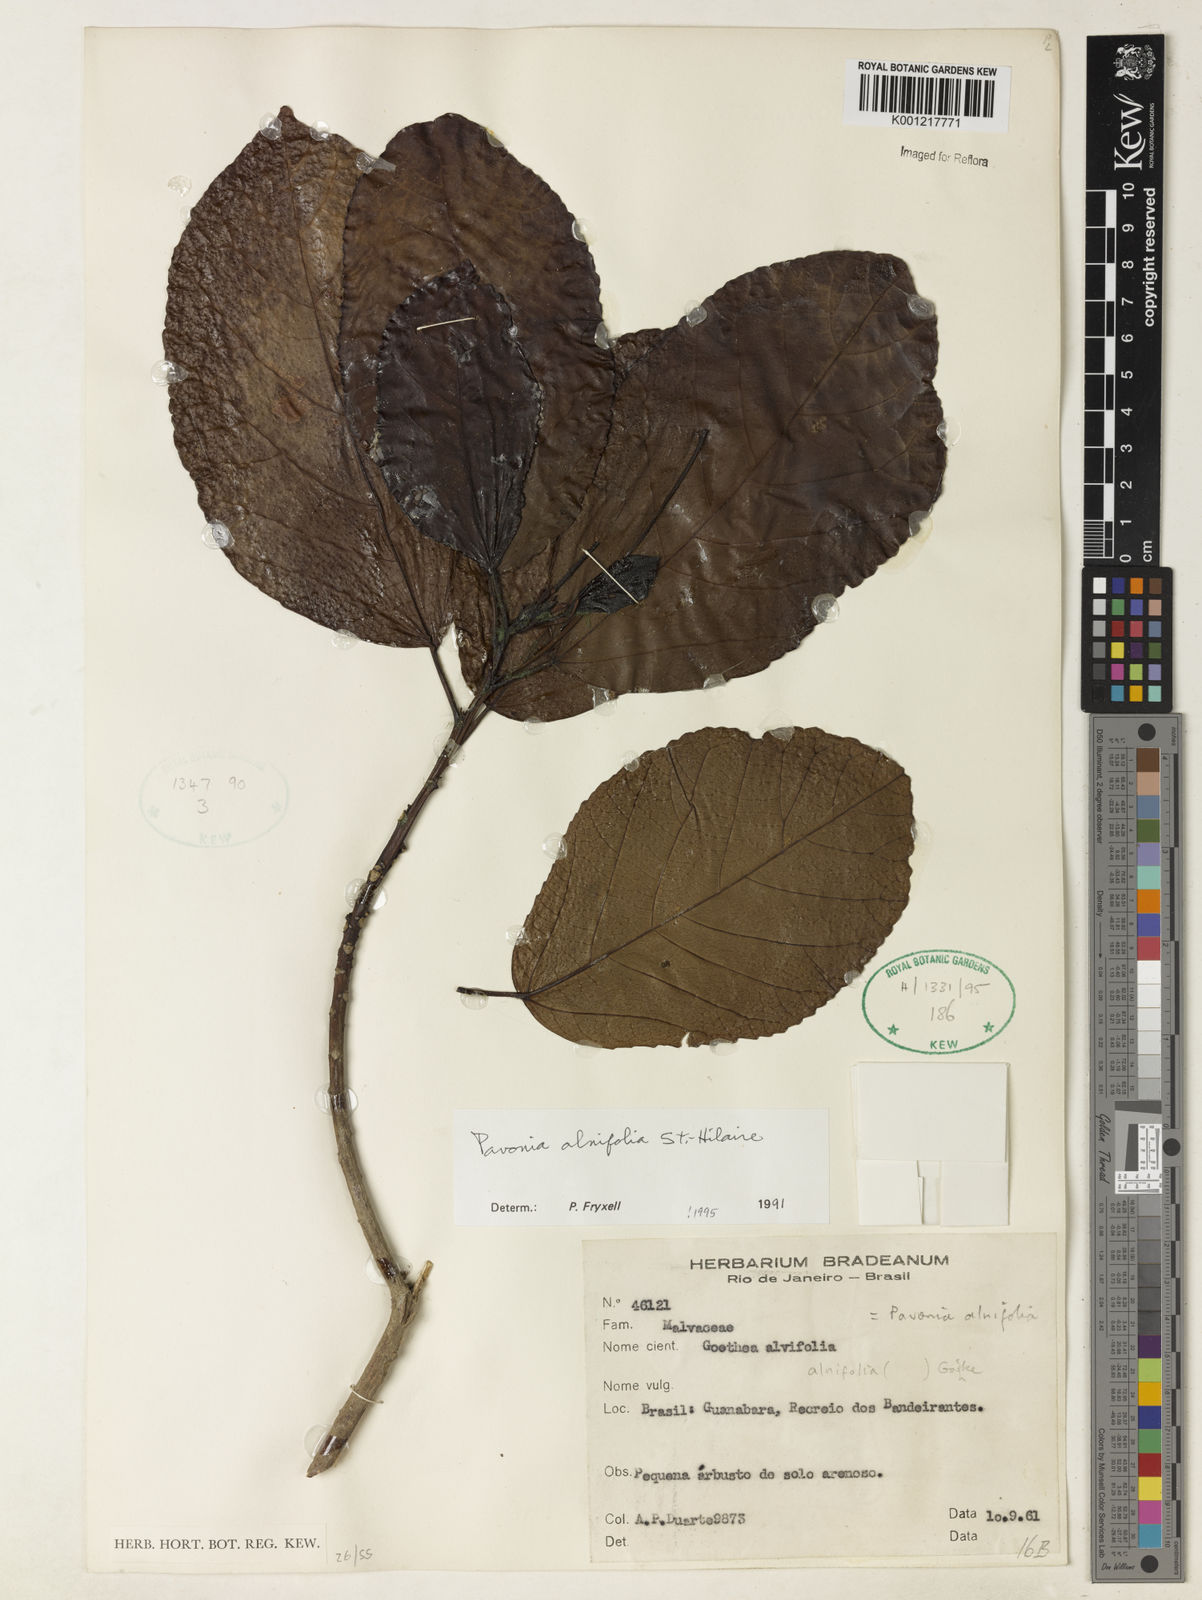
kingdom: Plantae
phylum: Tracheophyta
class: Magnoliopsida
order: Malvales
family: Malvaceae
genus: Pavonia
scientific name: Pavonia alnifolia
